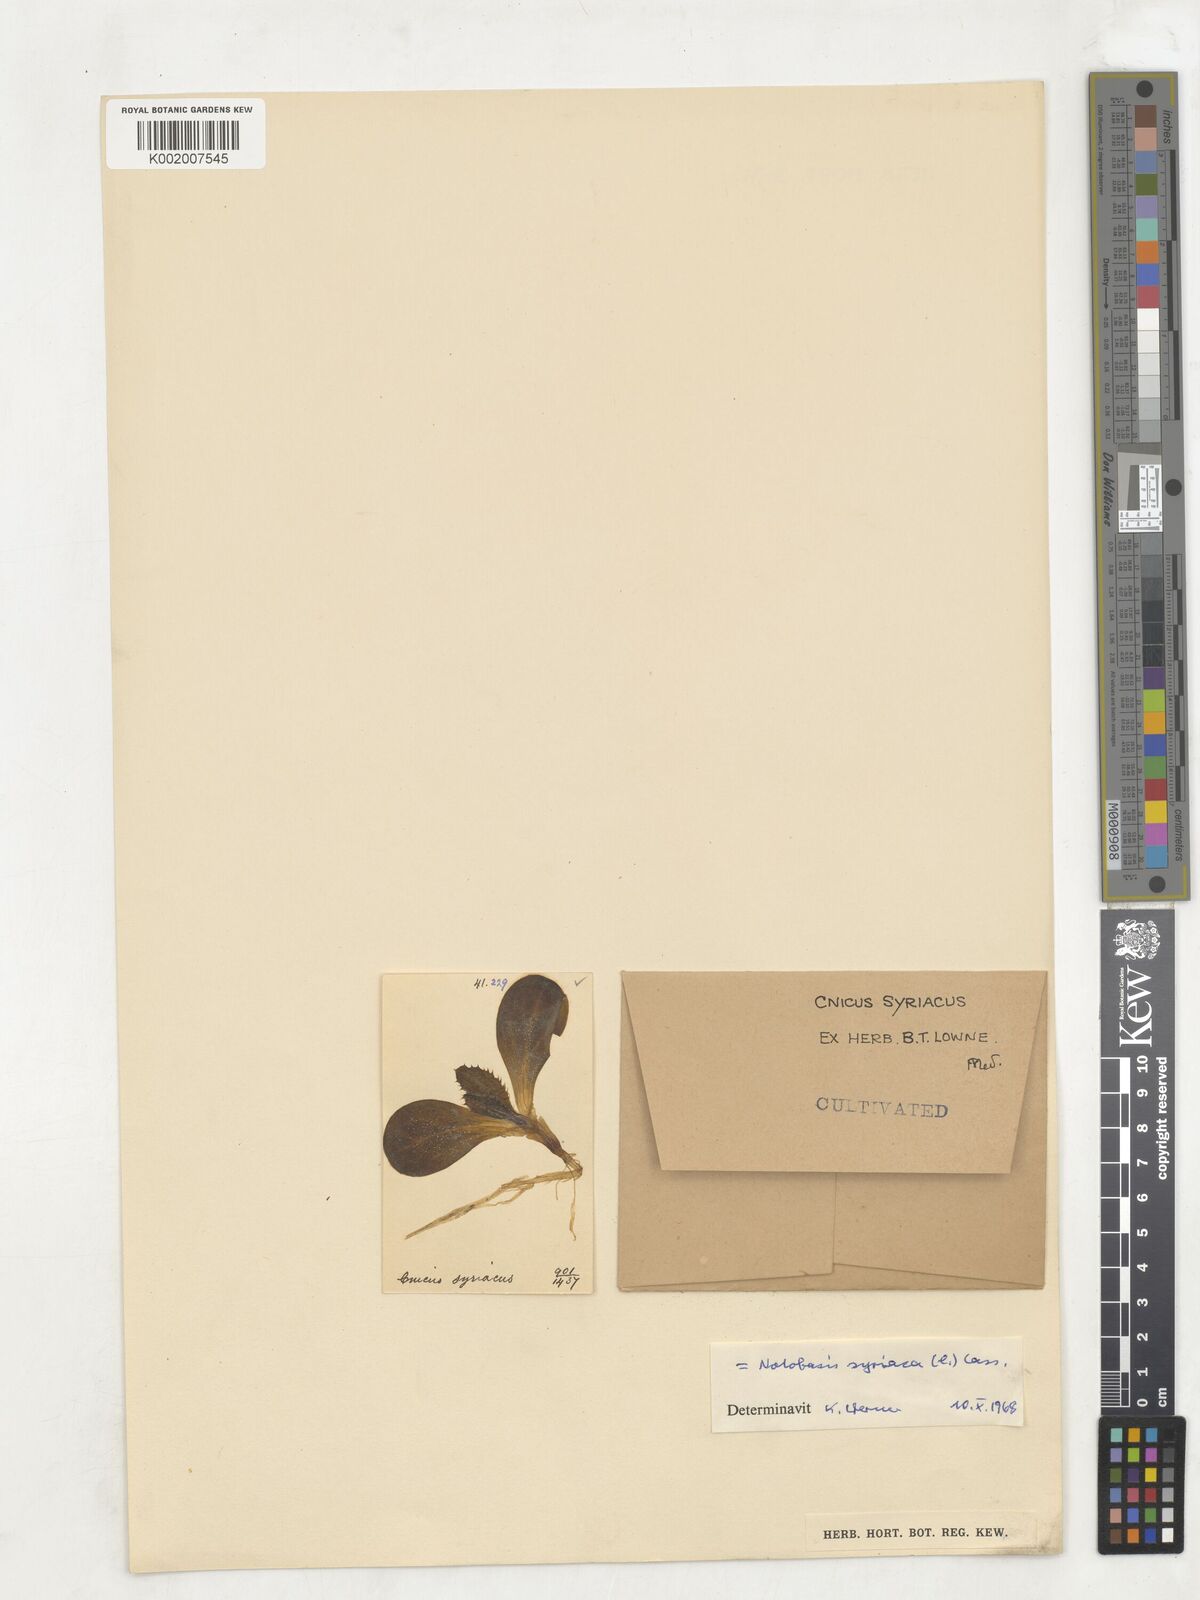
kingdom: Plantae
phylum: Tracheophyta
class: Magnoliopsida
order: Asterales
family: Asteraceae
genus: Notobasis
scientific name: Notobasis syriaca
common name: Syrian thistle
